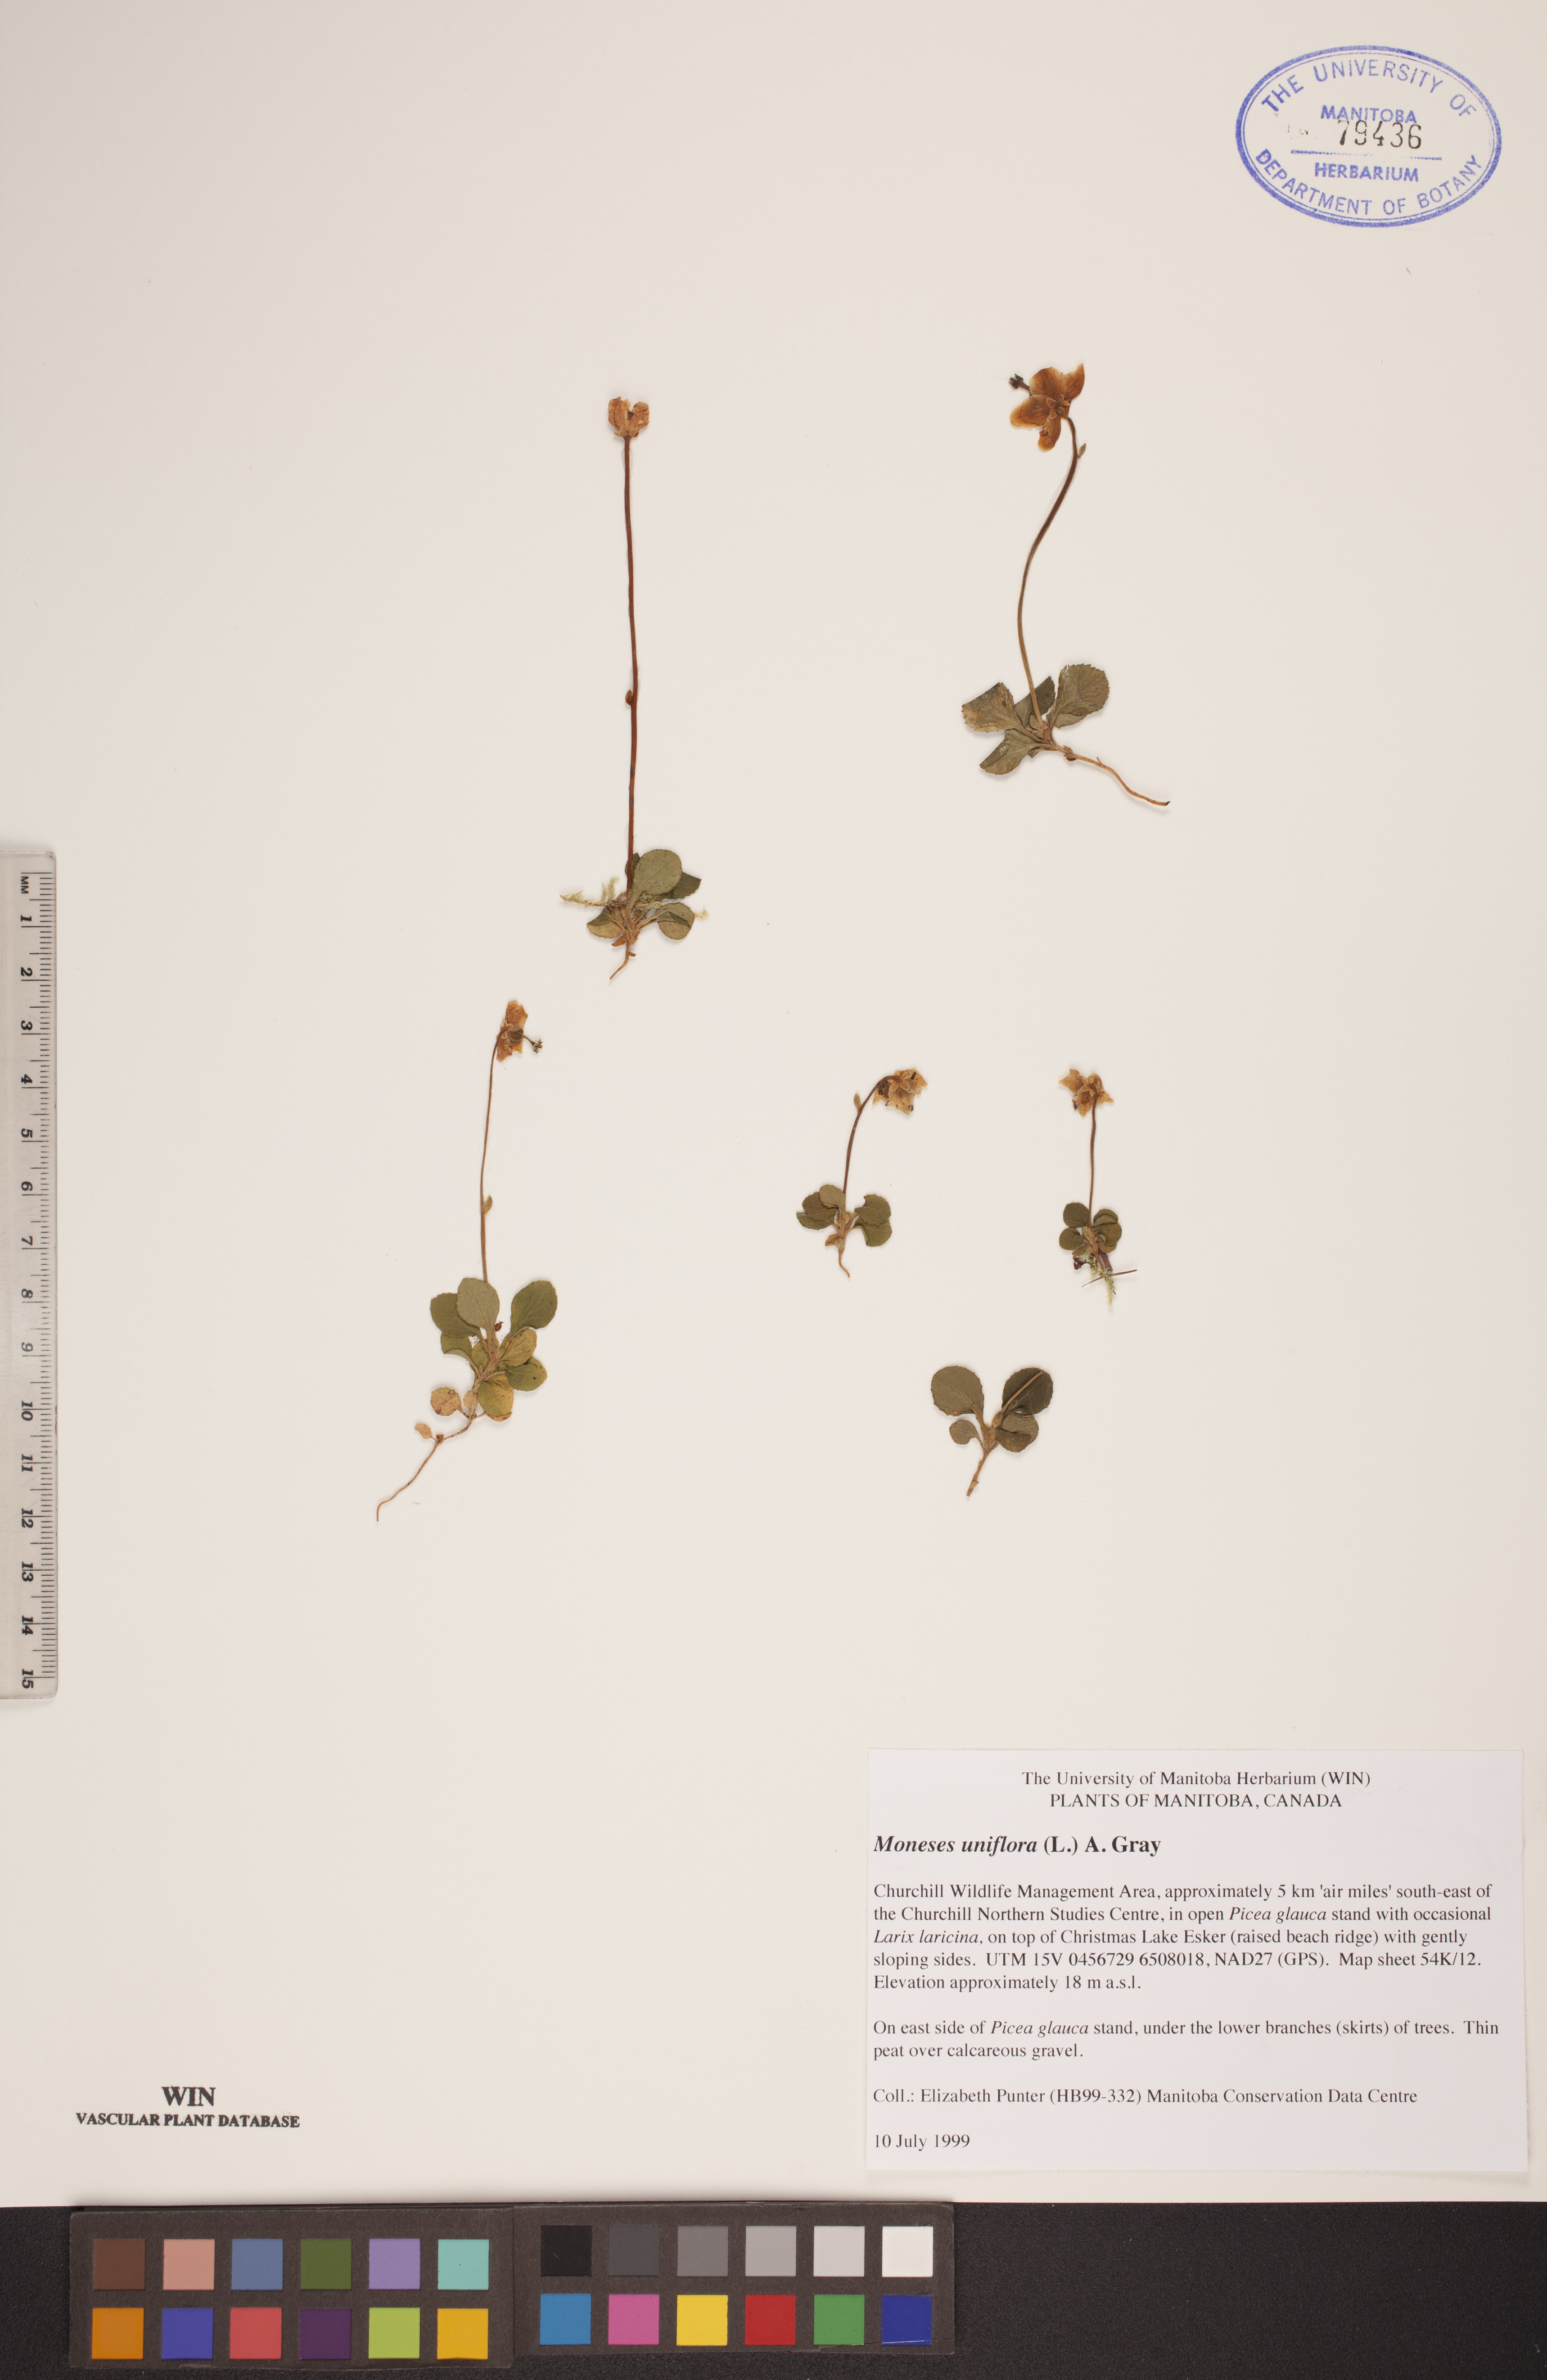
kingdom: Plantae
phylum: Tracheophyta
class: Magnoliopsida
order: Ericales
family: Ericaceae
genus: Moneses
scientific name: Moneses uniflora
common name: One-flowered wintergreen
